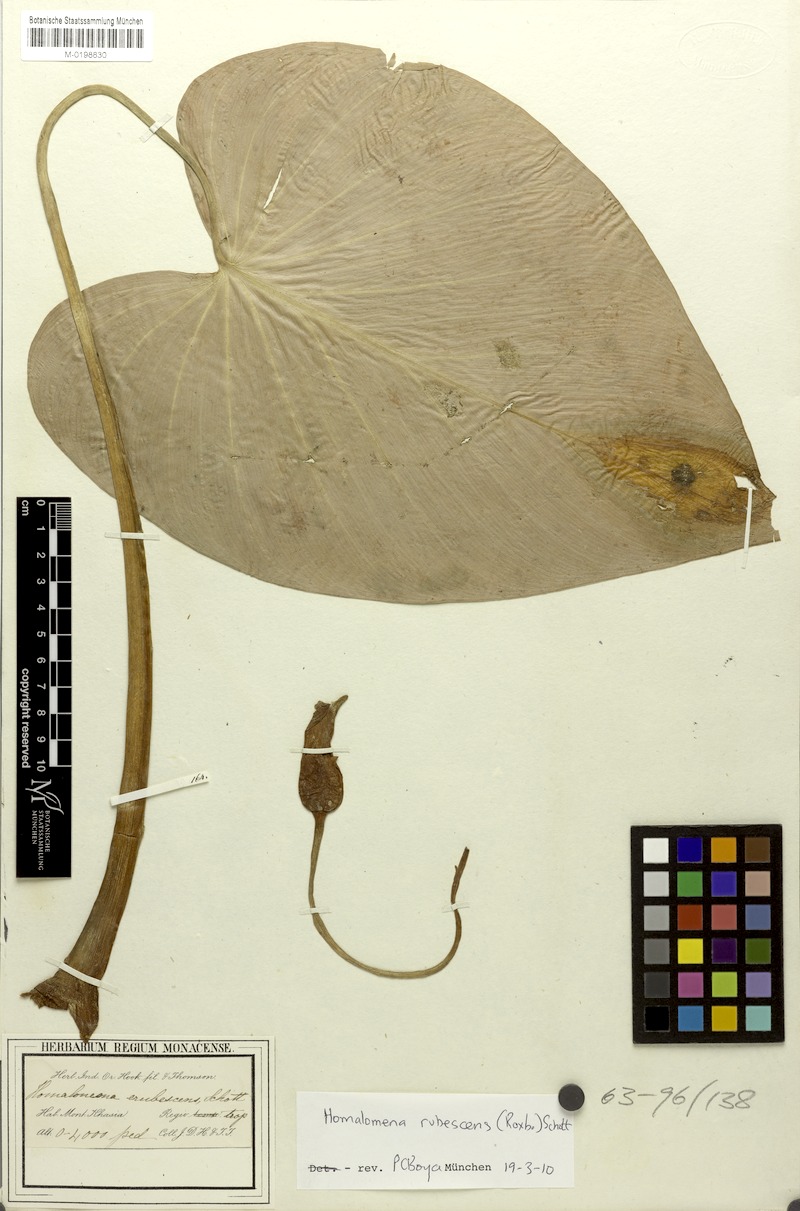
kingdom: Plantae
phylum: Tracheophyta
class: Liliopsida
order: Alismatales
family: Araceae
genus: Homalomena
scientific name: Homalomena rubescens
